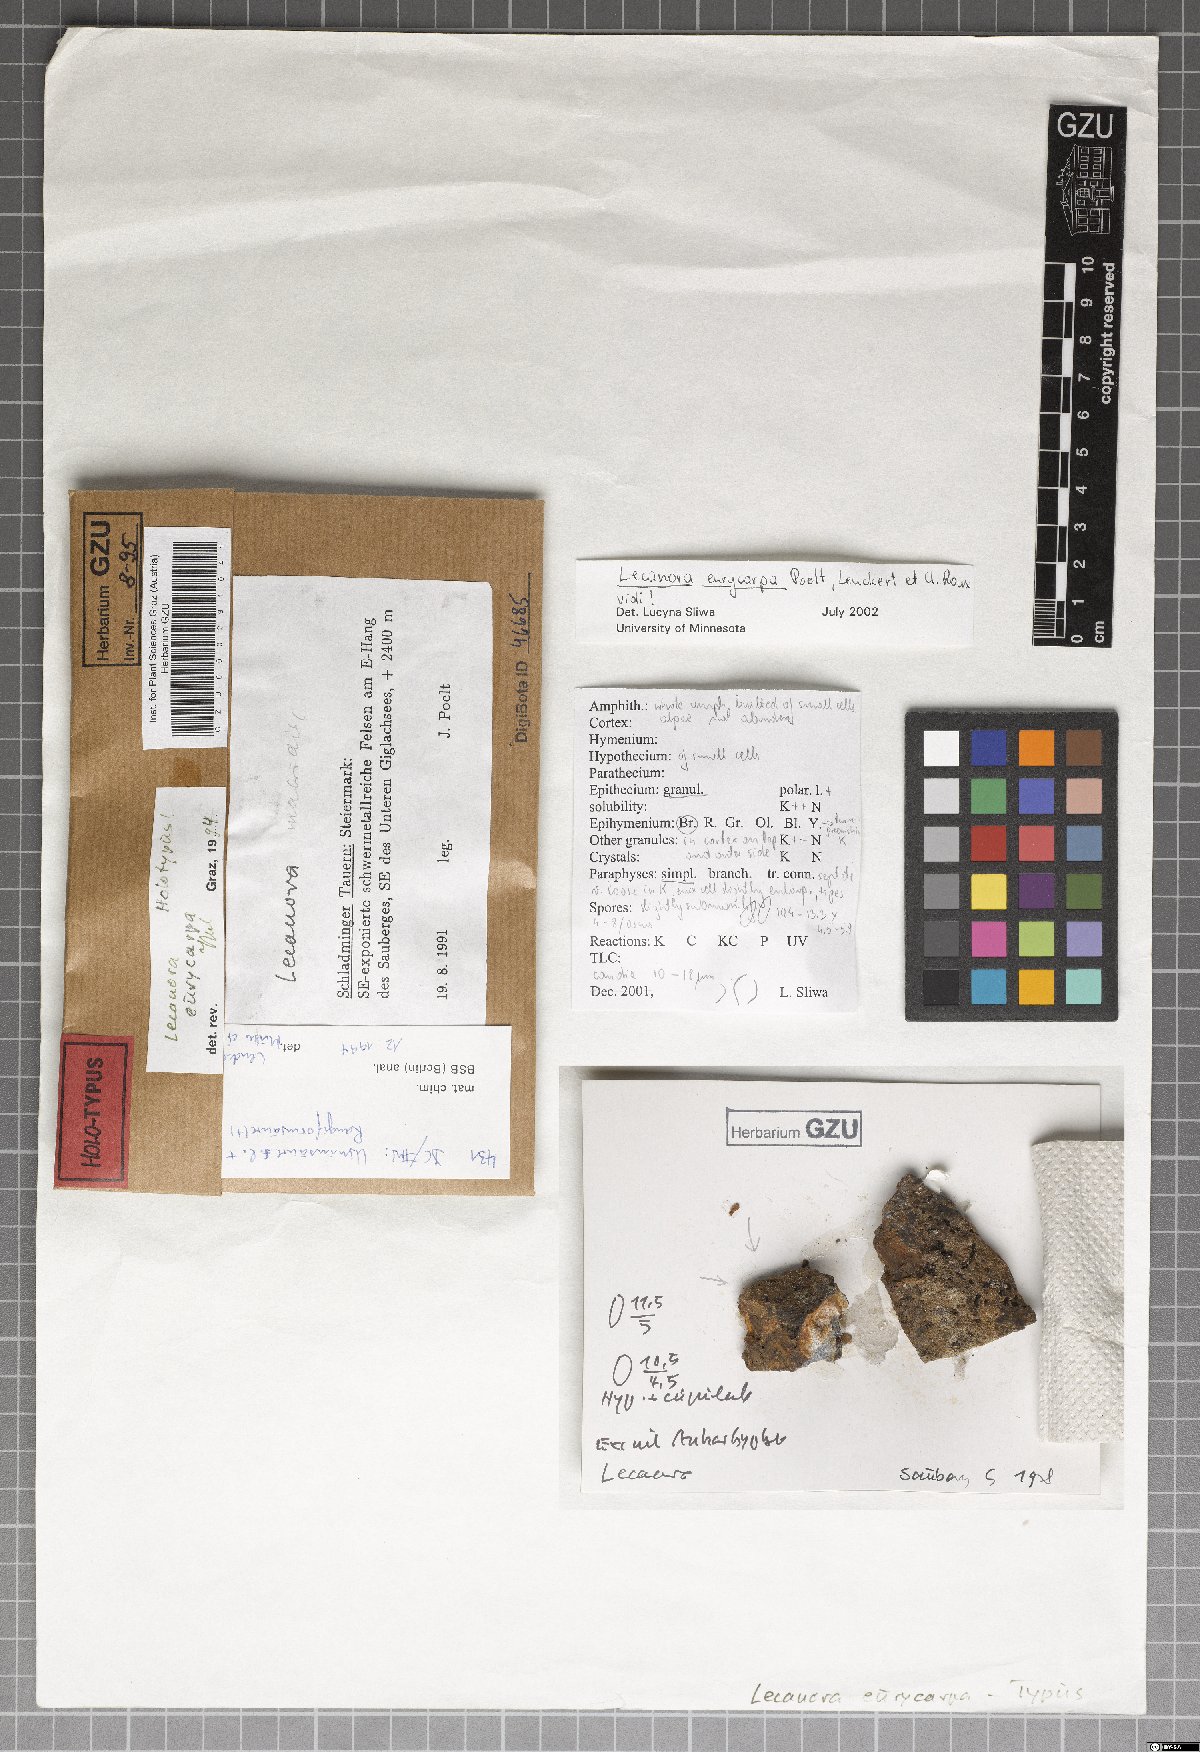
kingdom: Fungi
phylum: Ascomycota
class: Lecanoromycetes
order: Lecanorales
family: Lecanoraceae
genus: Polyozosia
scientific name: Polyozosia eurycarpa
